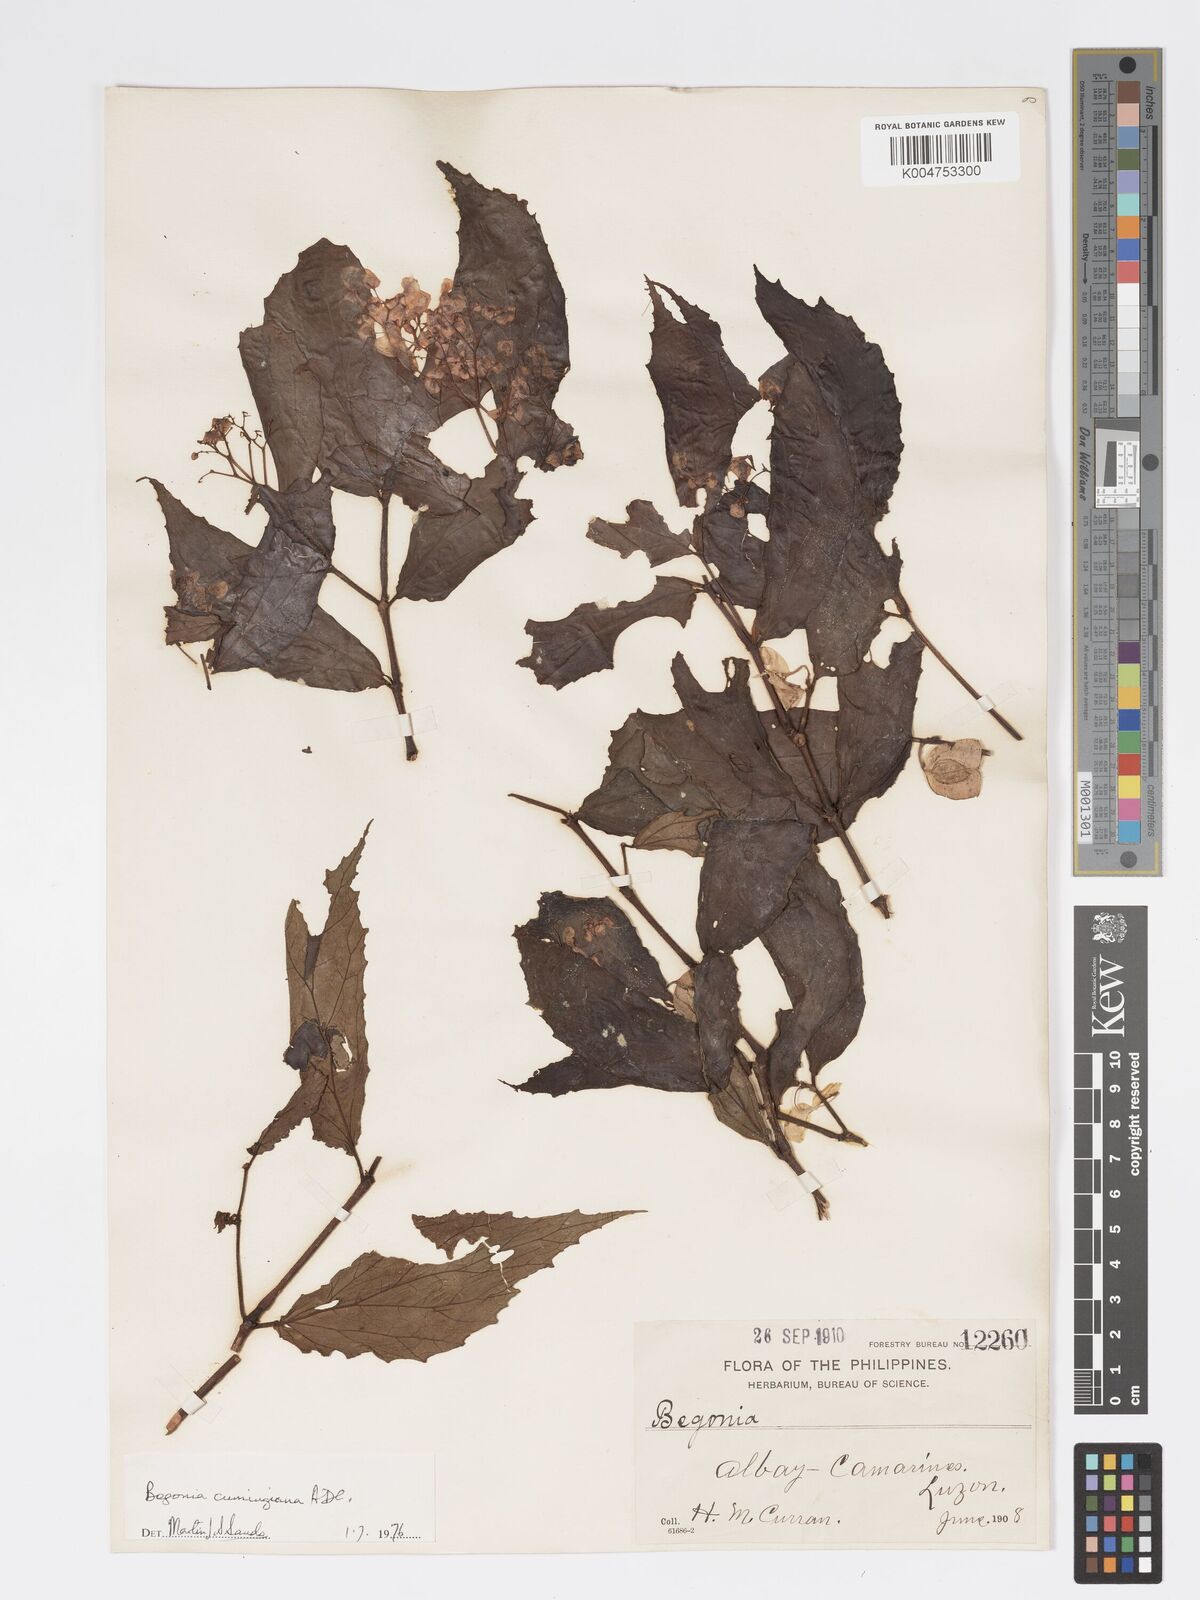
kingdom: Plantae
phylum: Tracheophyta
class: Magnoliopsida
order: Cucurbitales
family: Begoniaceae
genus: Begonia
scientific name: Begonia cumingiana
